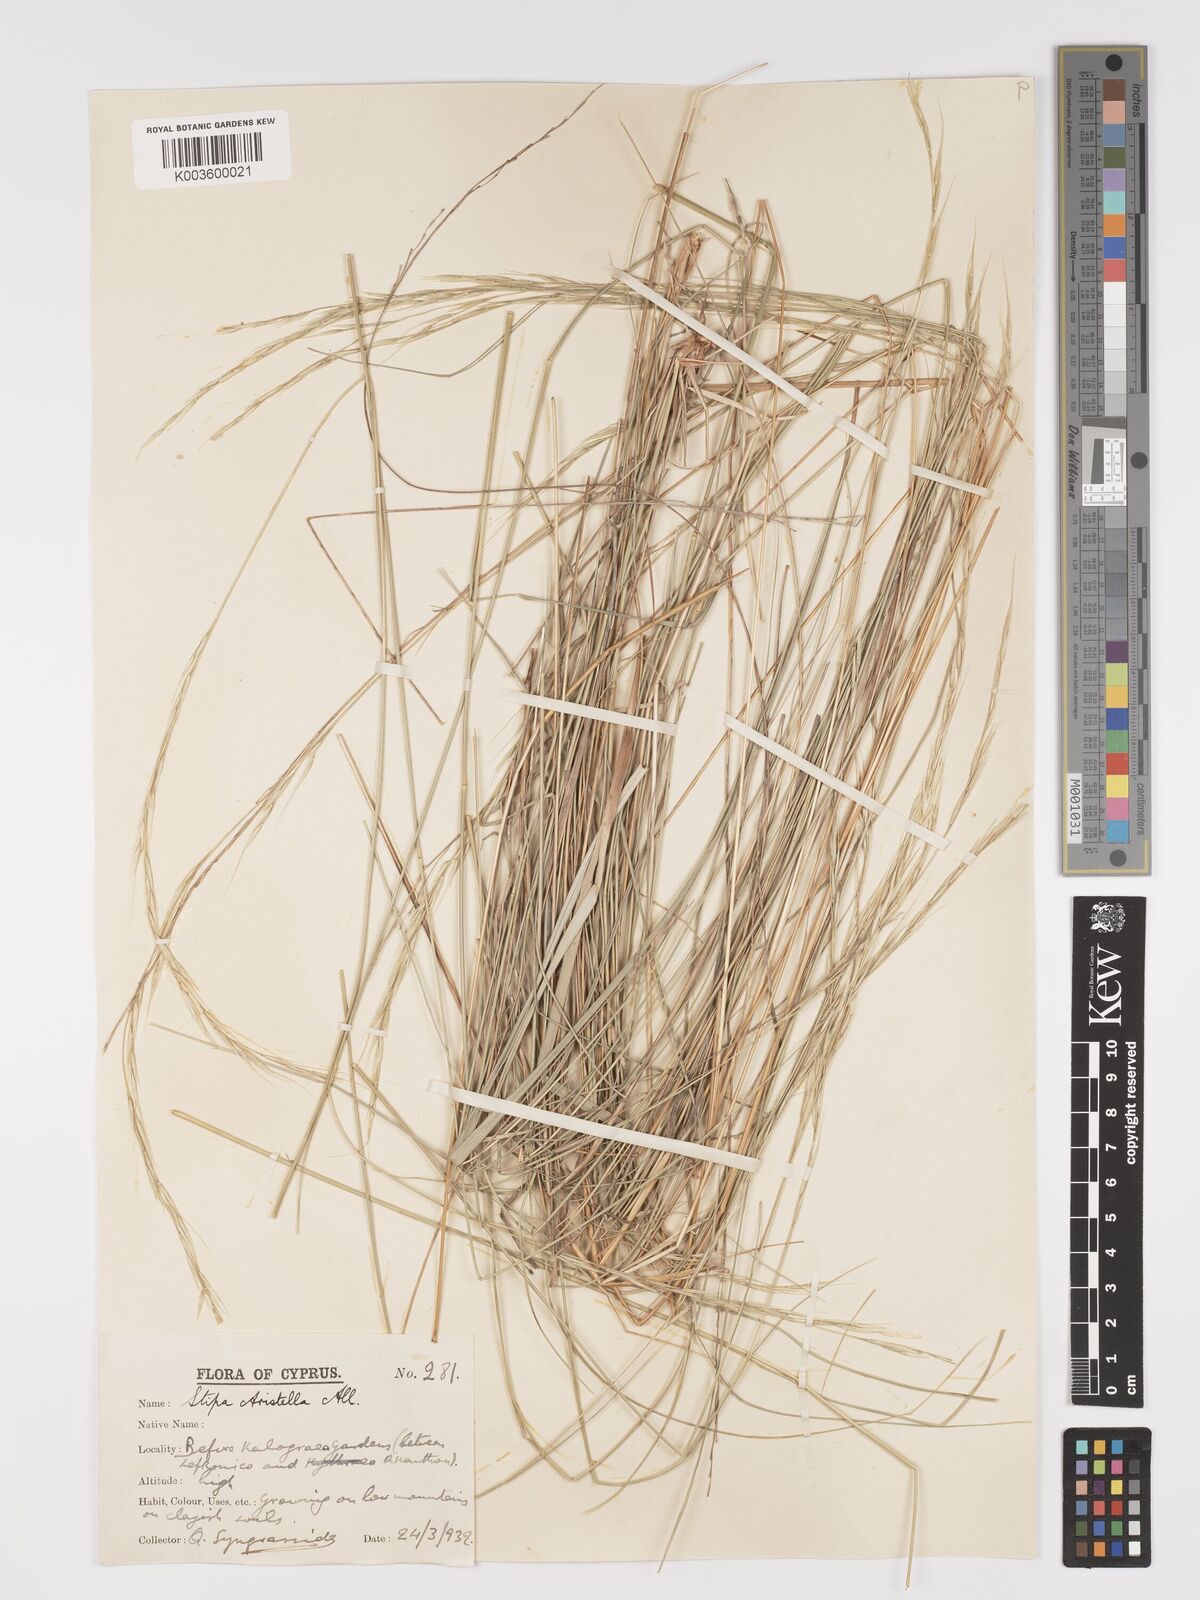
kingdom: Plantae
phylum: Tracheophyta
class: Liliopsida
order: Poales
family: Poaceae
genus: Achnatherum
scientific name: Achnatherum bromoides
